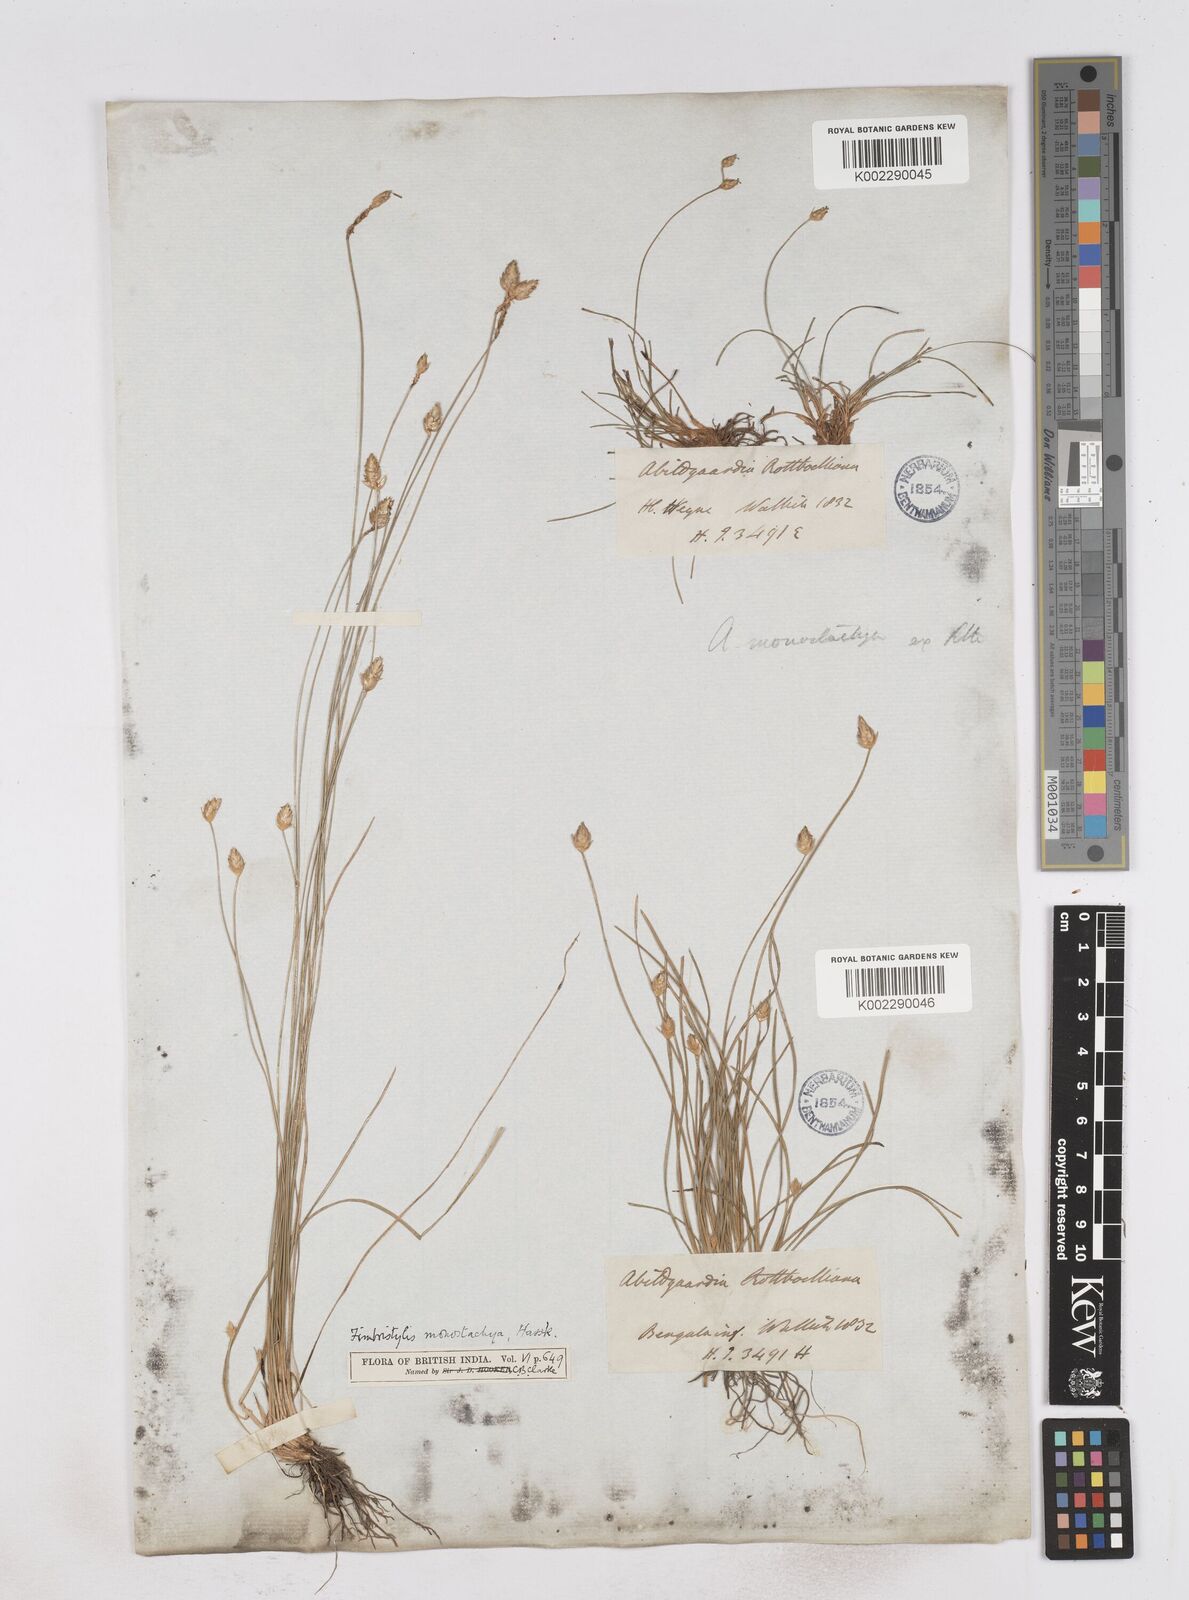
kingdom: Plantae
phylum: Tracheophyta
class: Liliopsida
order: Poales
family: Cyperaceae
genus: Abildgaardia
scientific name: Abildgaardia ovata
